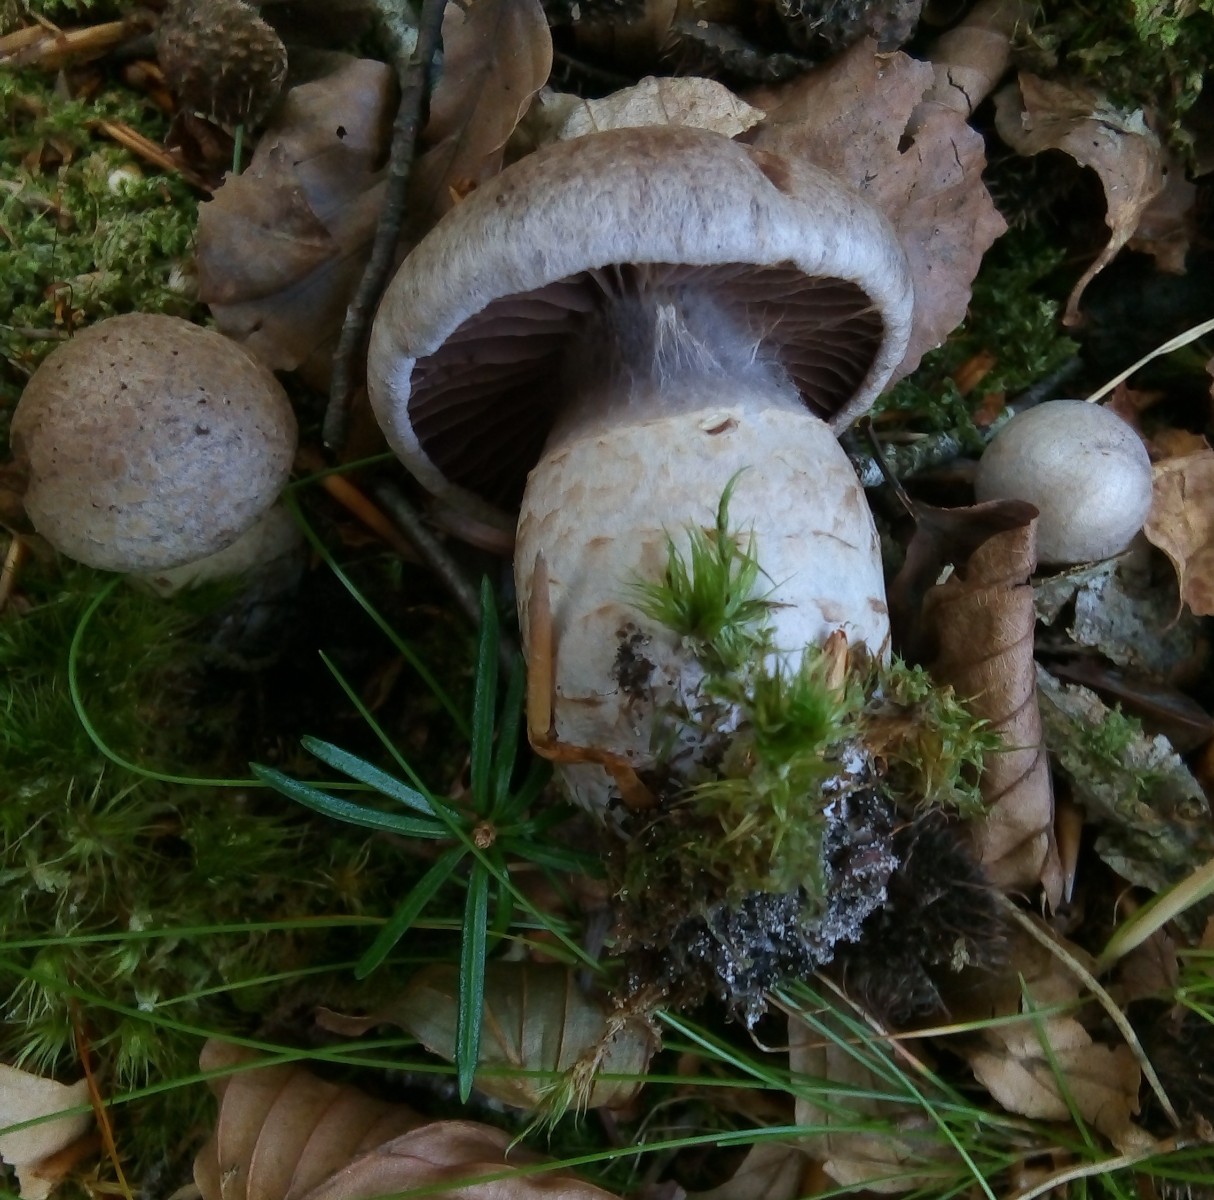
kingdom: Fungi
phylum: Basidiomycota
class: Agaricomycetes
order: Agaricales
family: Cortinariaceae
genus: Cortinarius
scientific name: Cortinarius torvus
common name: champignonagtig slørhat
